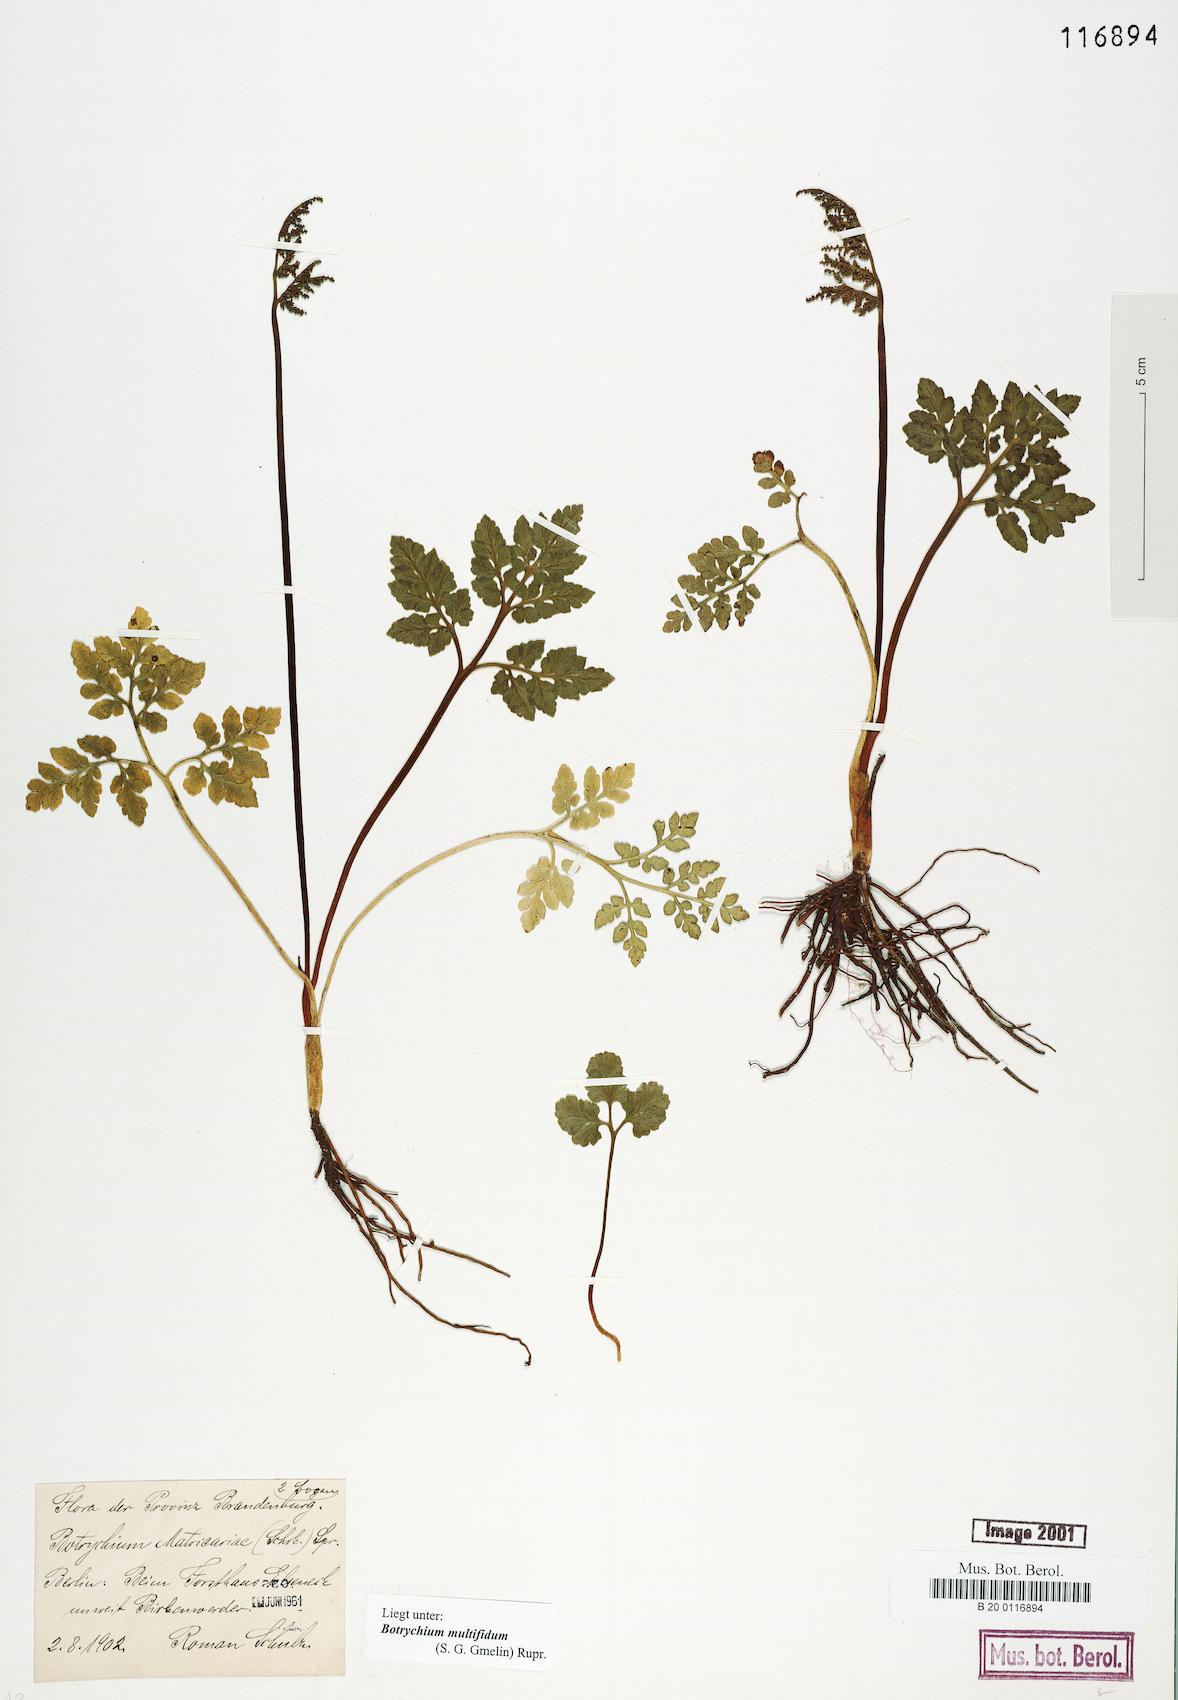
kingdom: Plantae
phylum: Tracheophyta
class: Polypodiopsida
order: Ophioglossales
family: Ophioglossaceae
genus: Sceptridium
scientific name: Sceptridium multifidum
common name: Leathery grape fern
